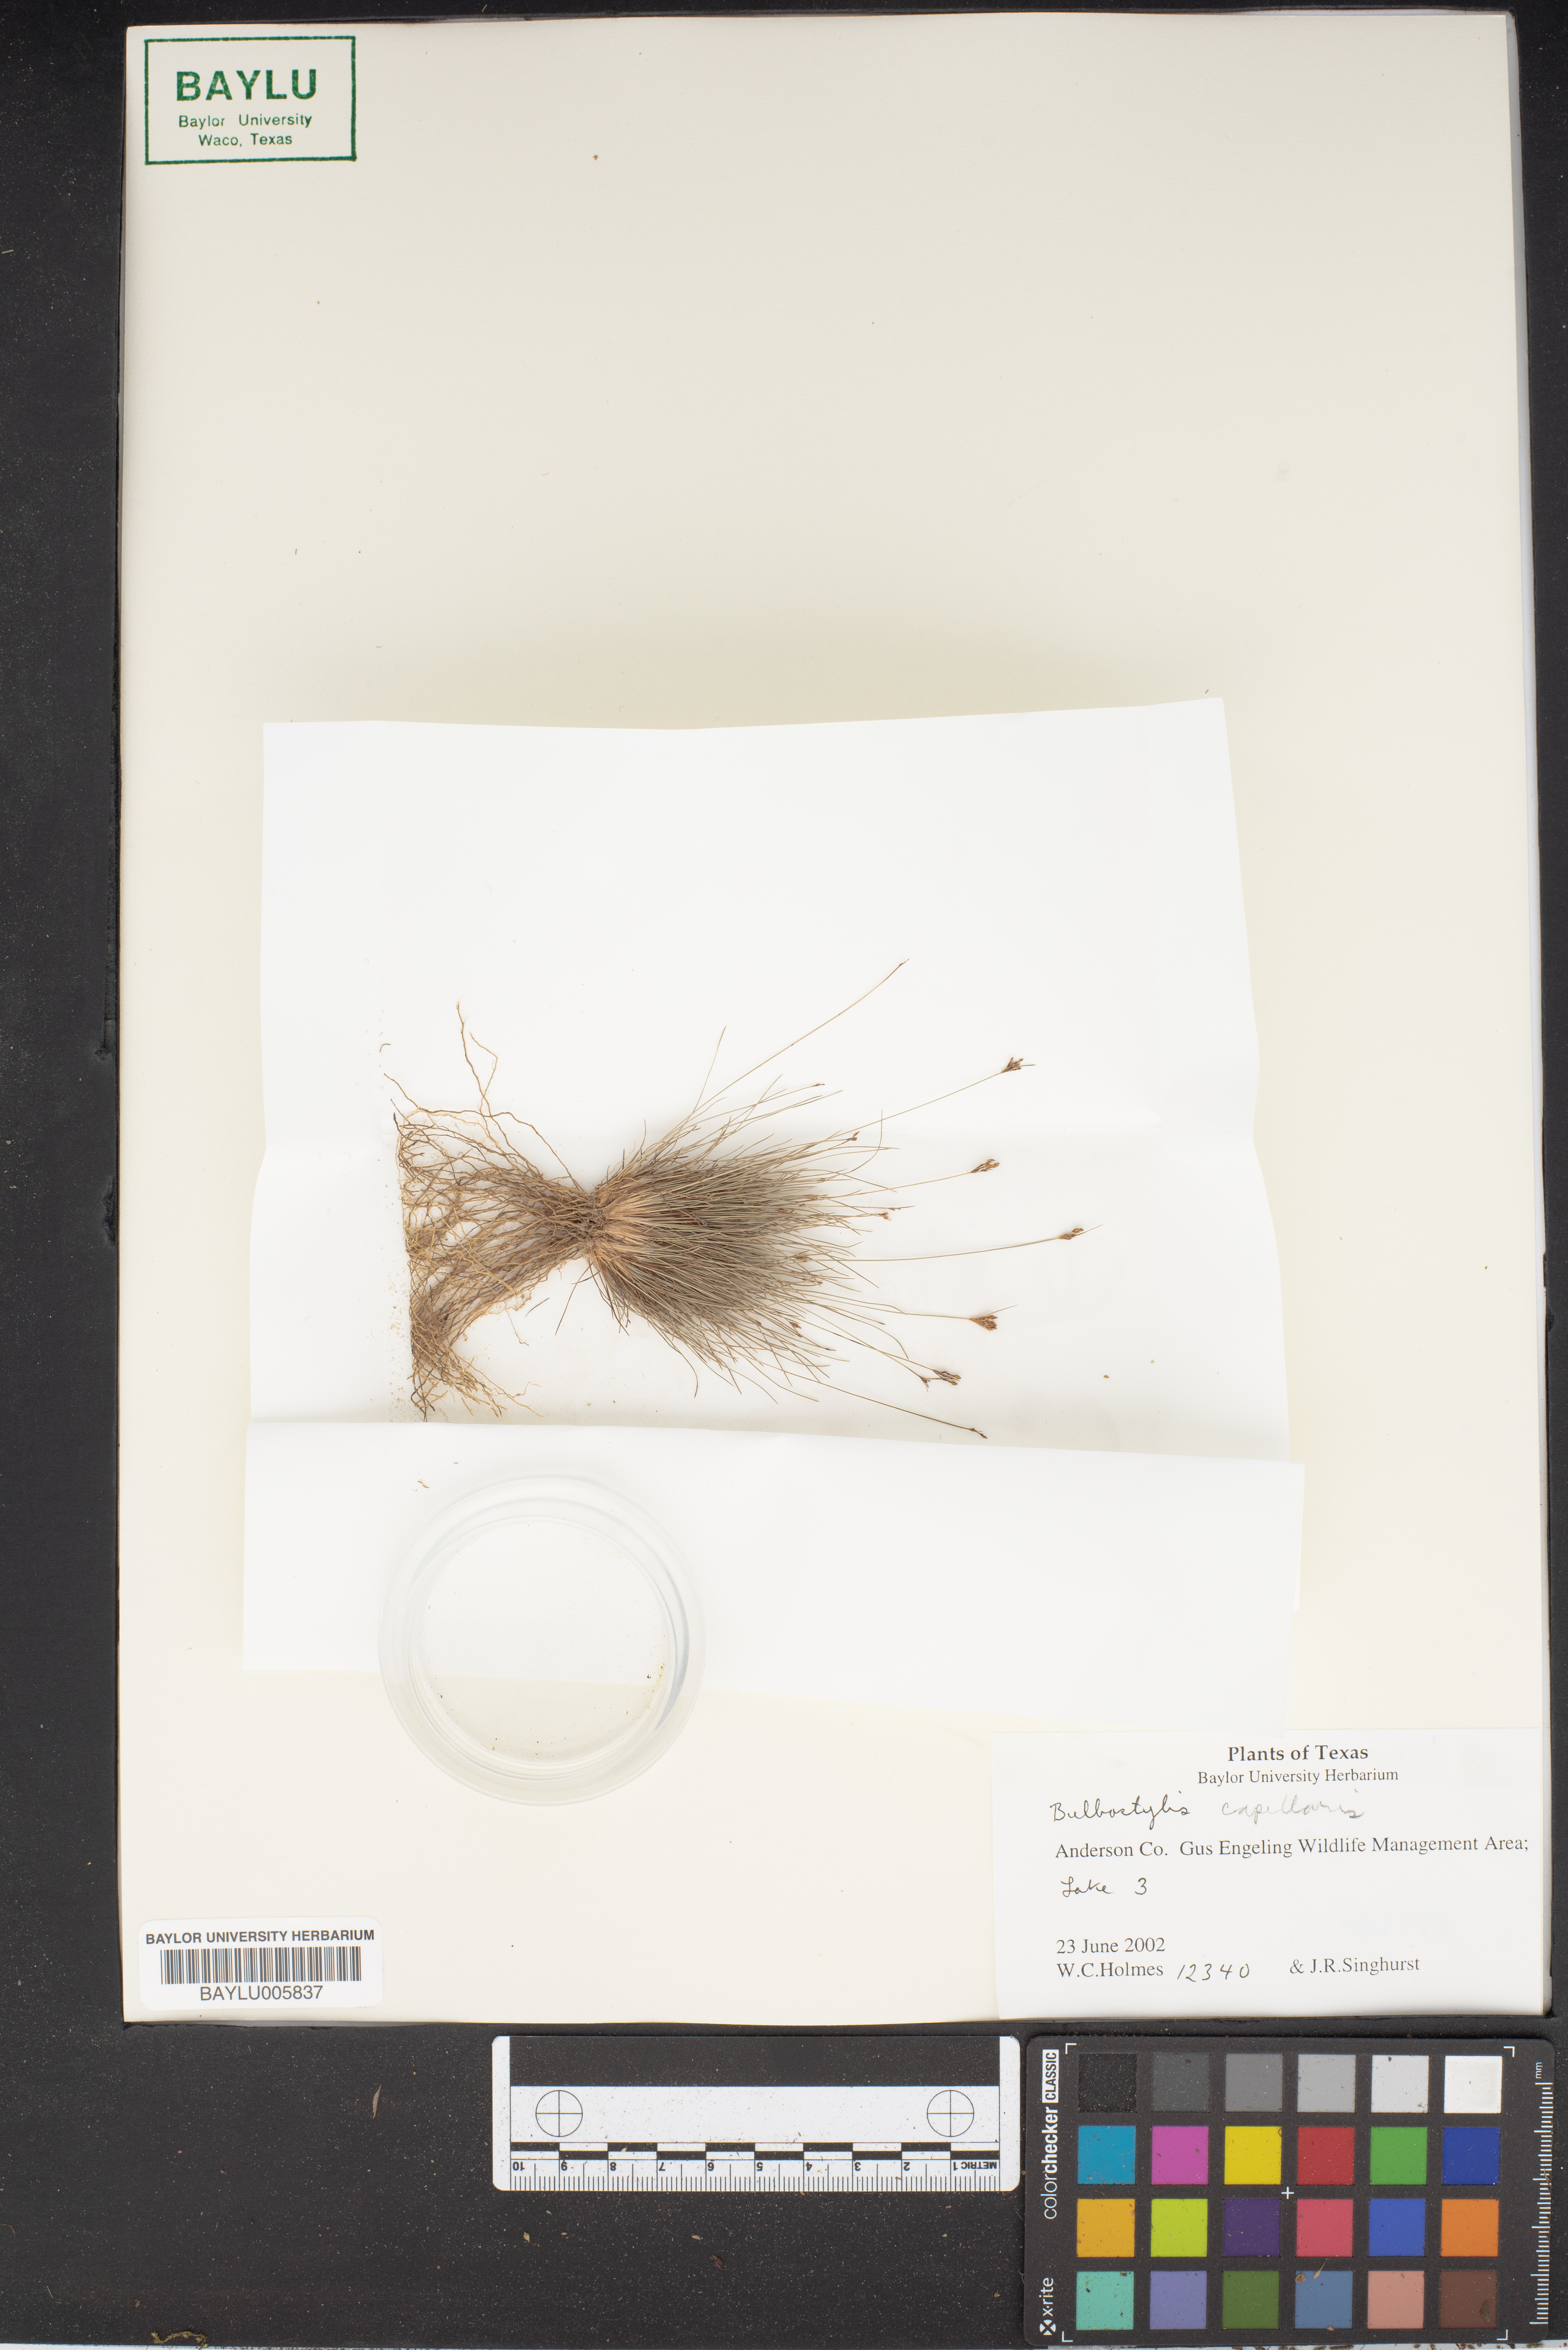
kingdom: Plantae
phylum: Tracheophyta
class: Liliopsida
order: Poales
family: Cyperaceae
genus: Bulbostylis
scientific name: Bulbostylis capillaris
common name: Densetuft hairsedge
